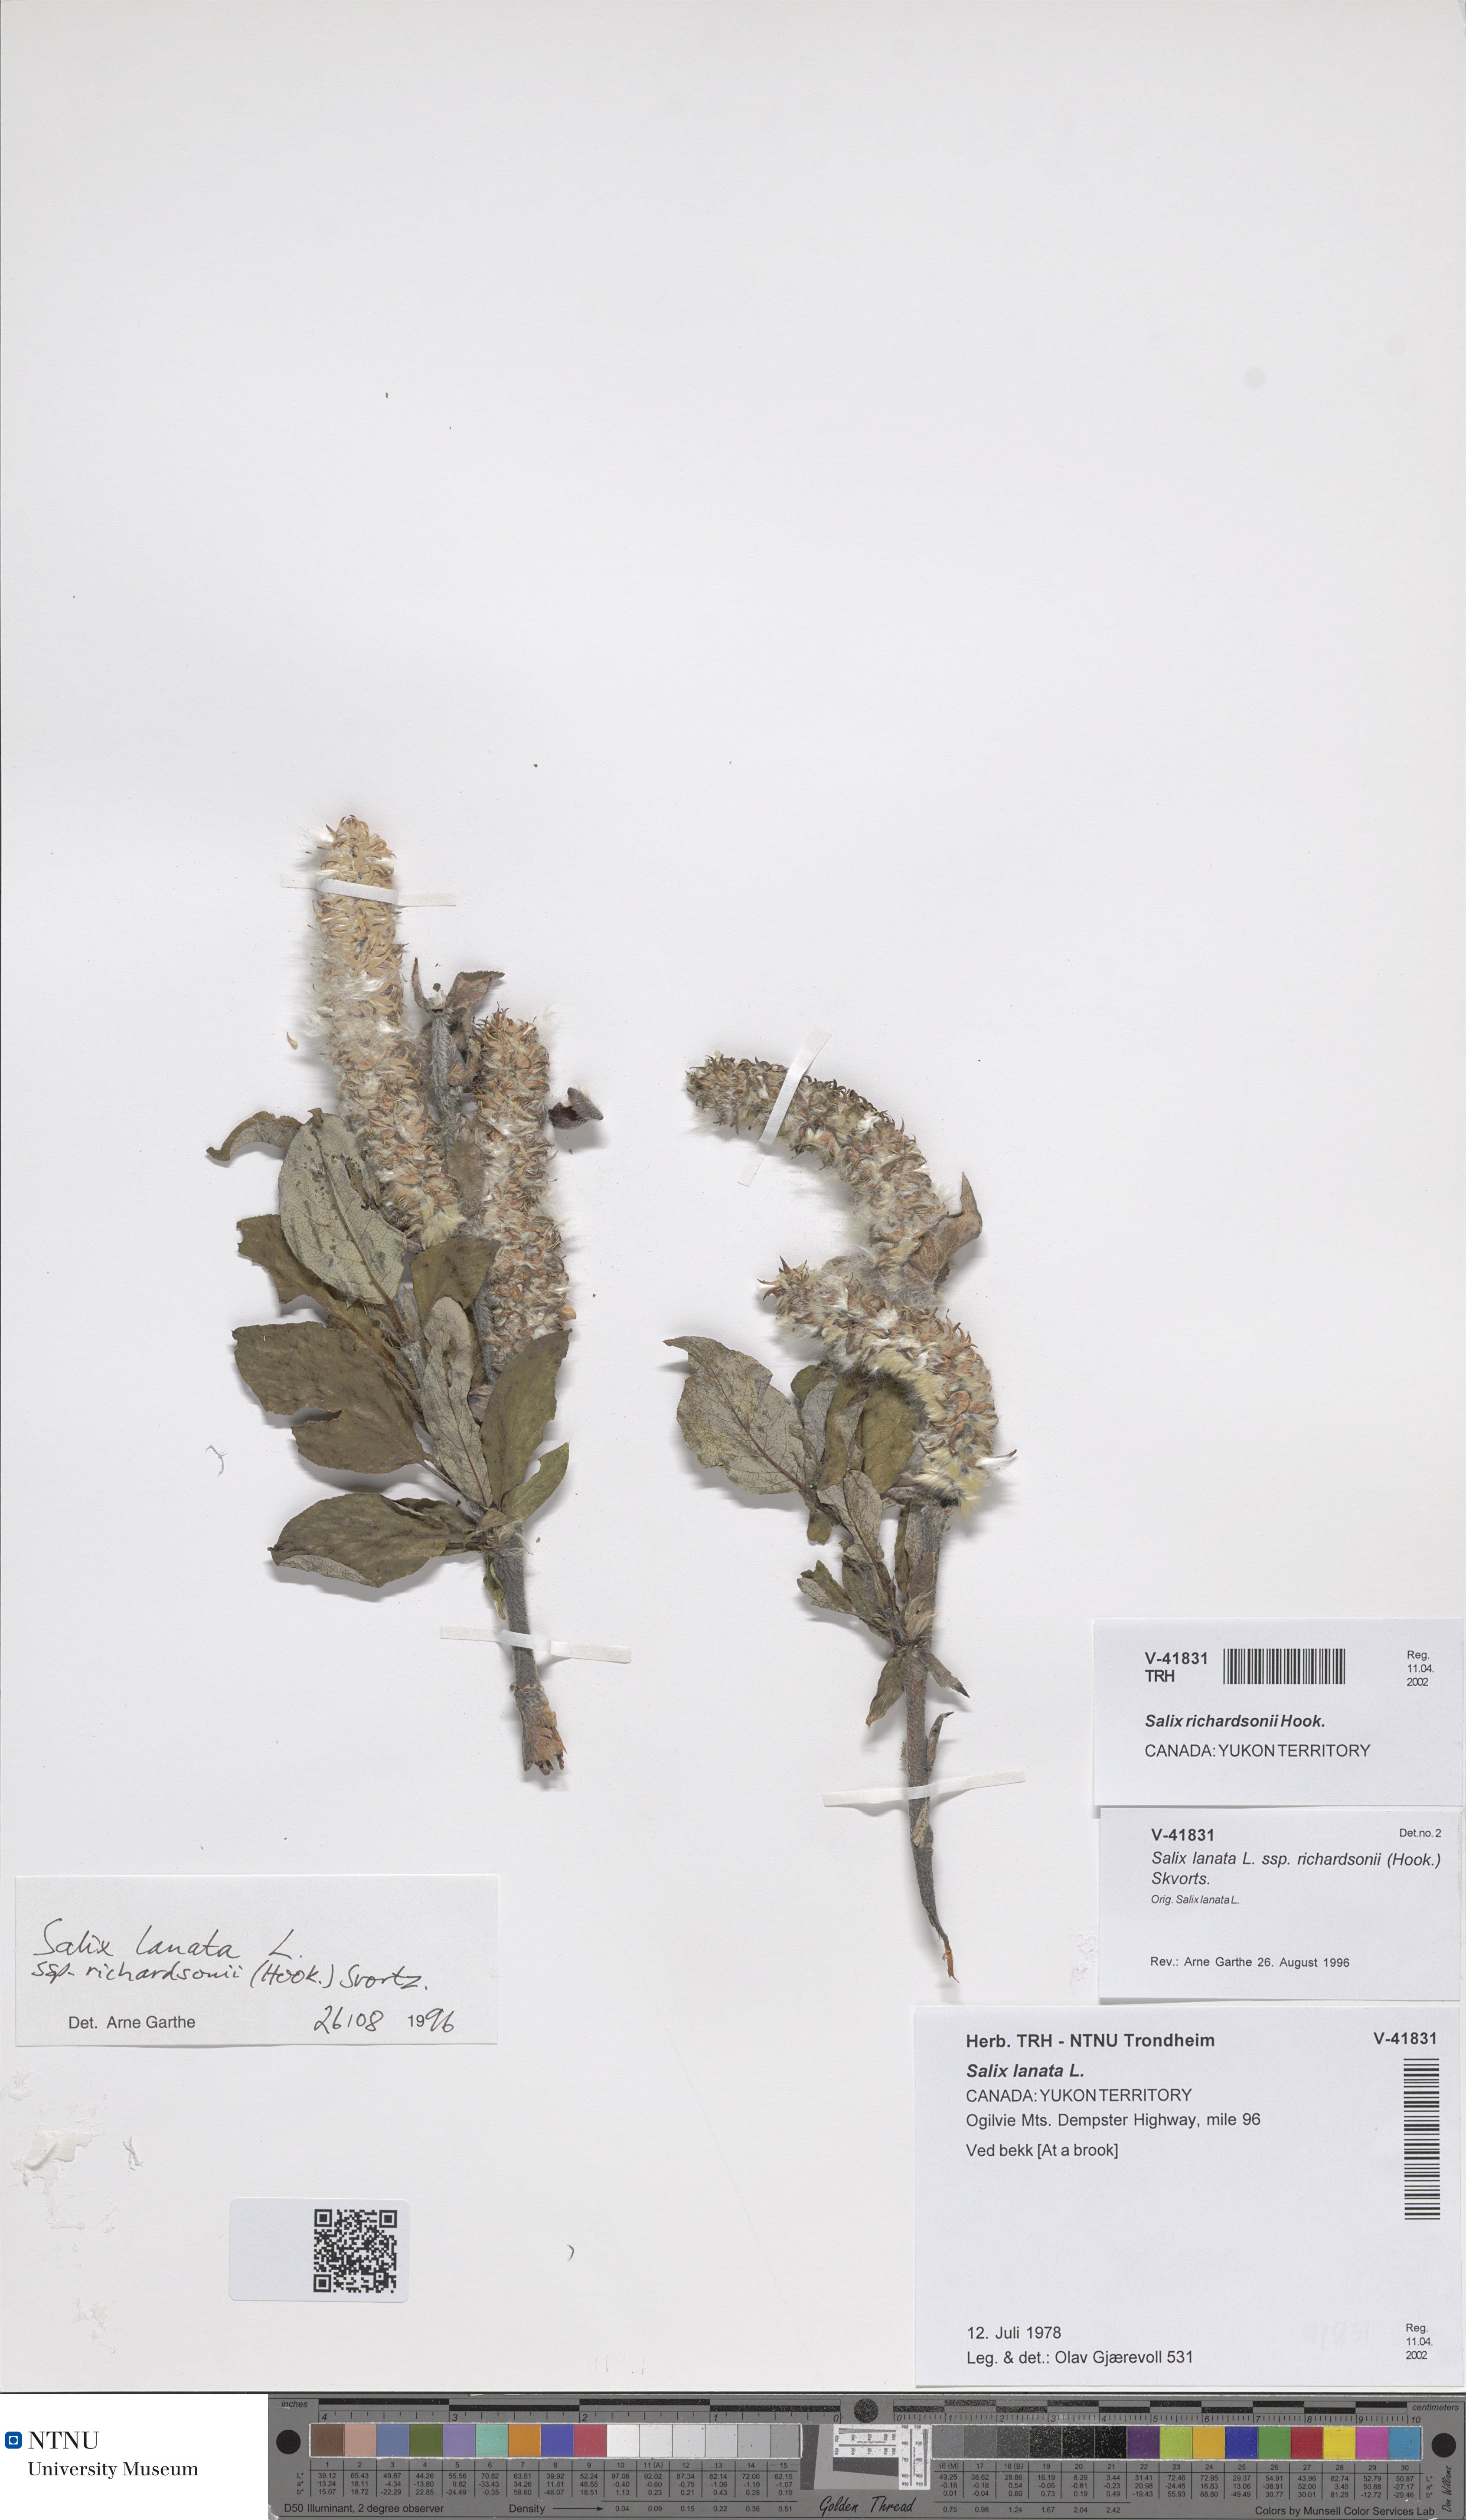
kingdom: Plantae
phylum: Tracheophyta
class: Magnoliopsida
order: Malpighiales
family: Salicaceae
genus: Salix
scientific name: Salix richardsonii
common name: Richardson’s willow
